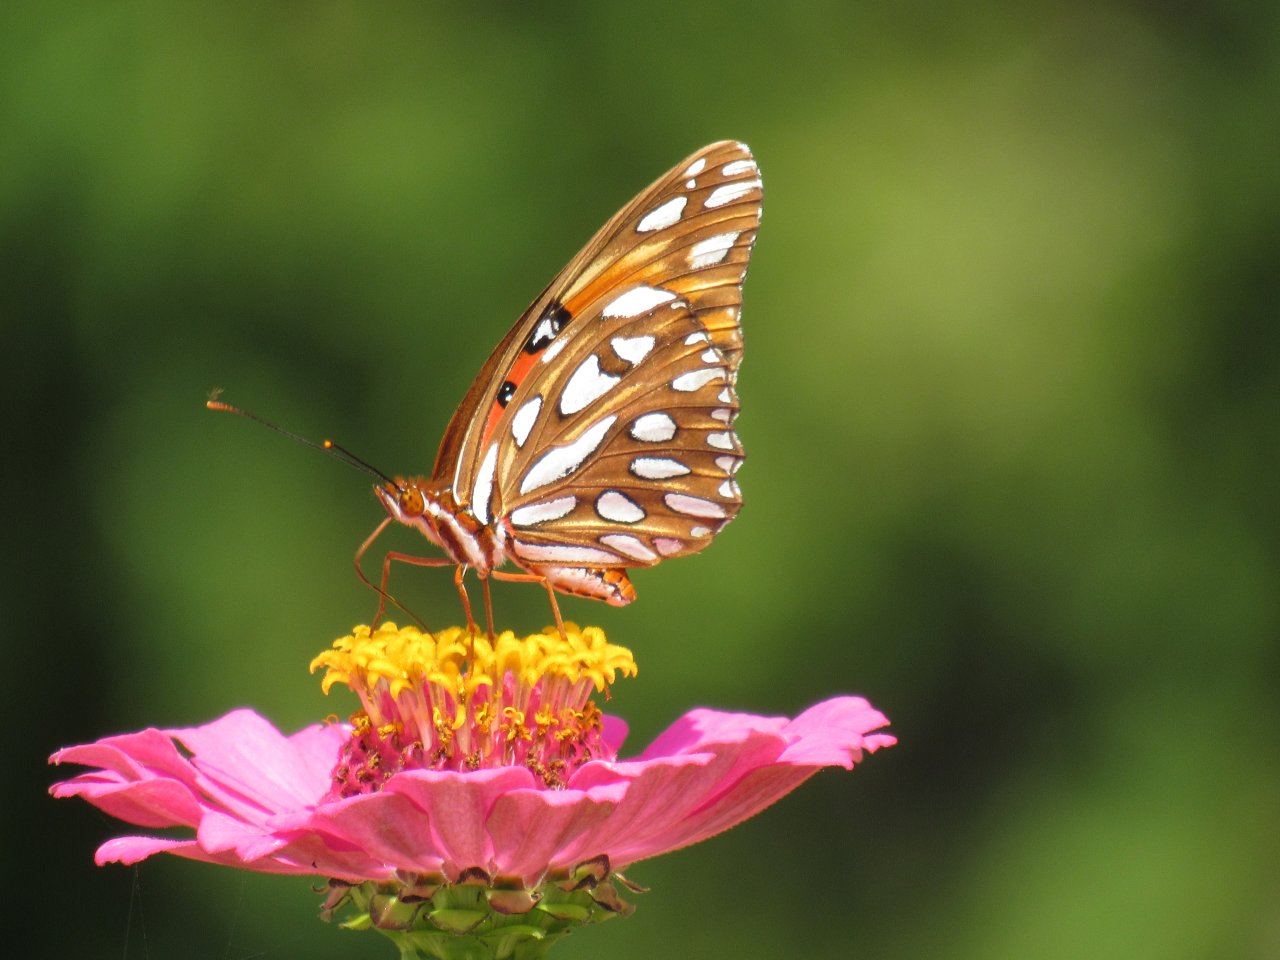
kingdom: Animalia
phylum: Arthropoda
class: Insecta
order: Lepidoptera
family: Nymphalidae
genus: Dione
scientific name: Dione vanillae
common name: Gulf Fritillary
